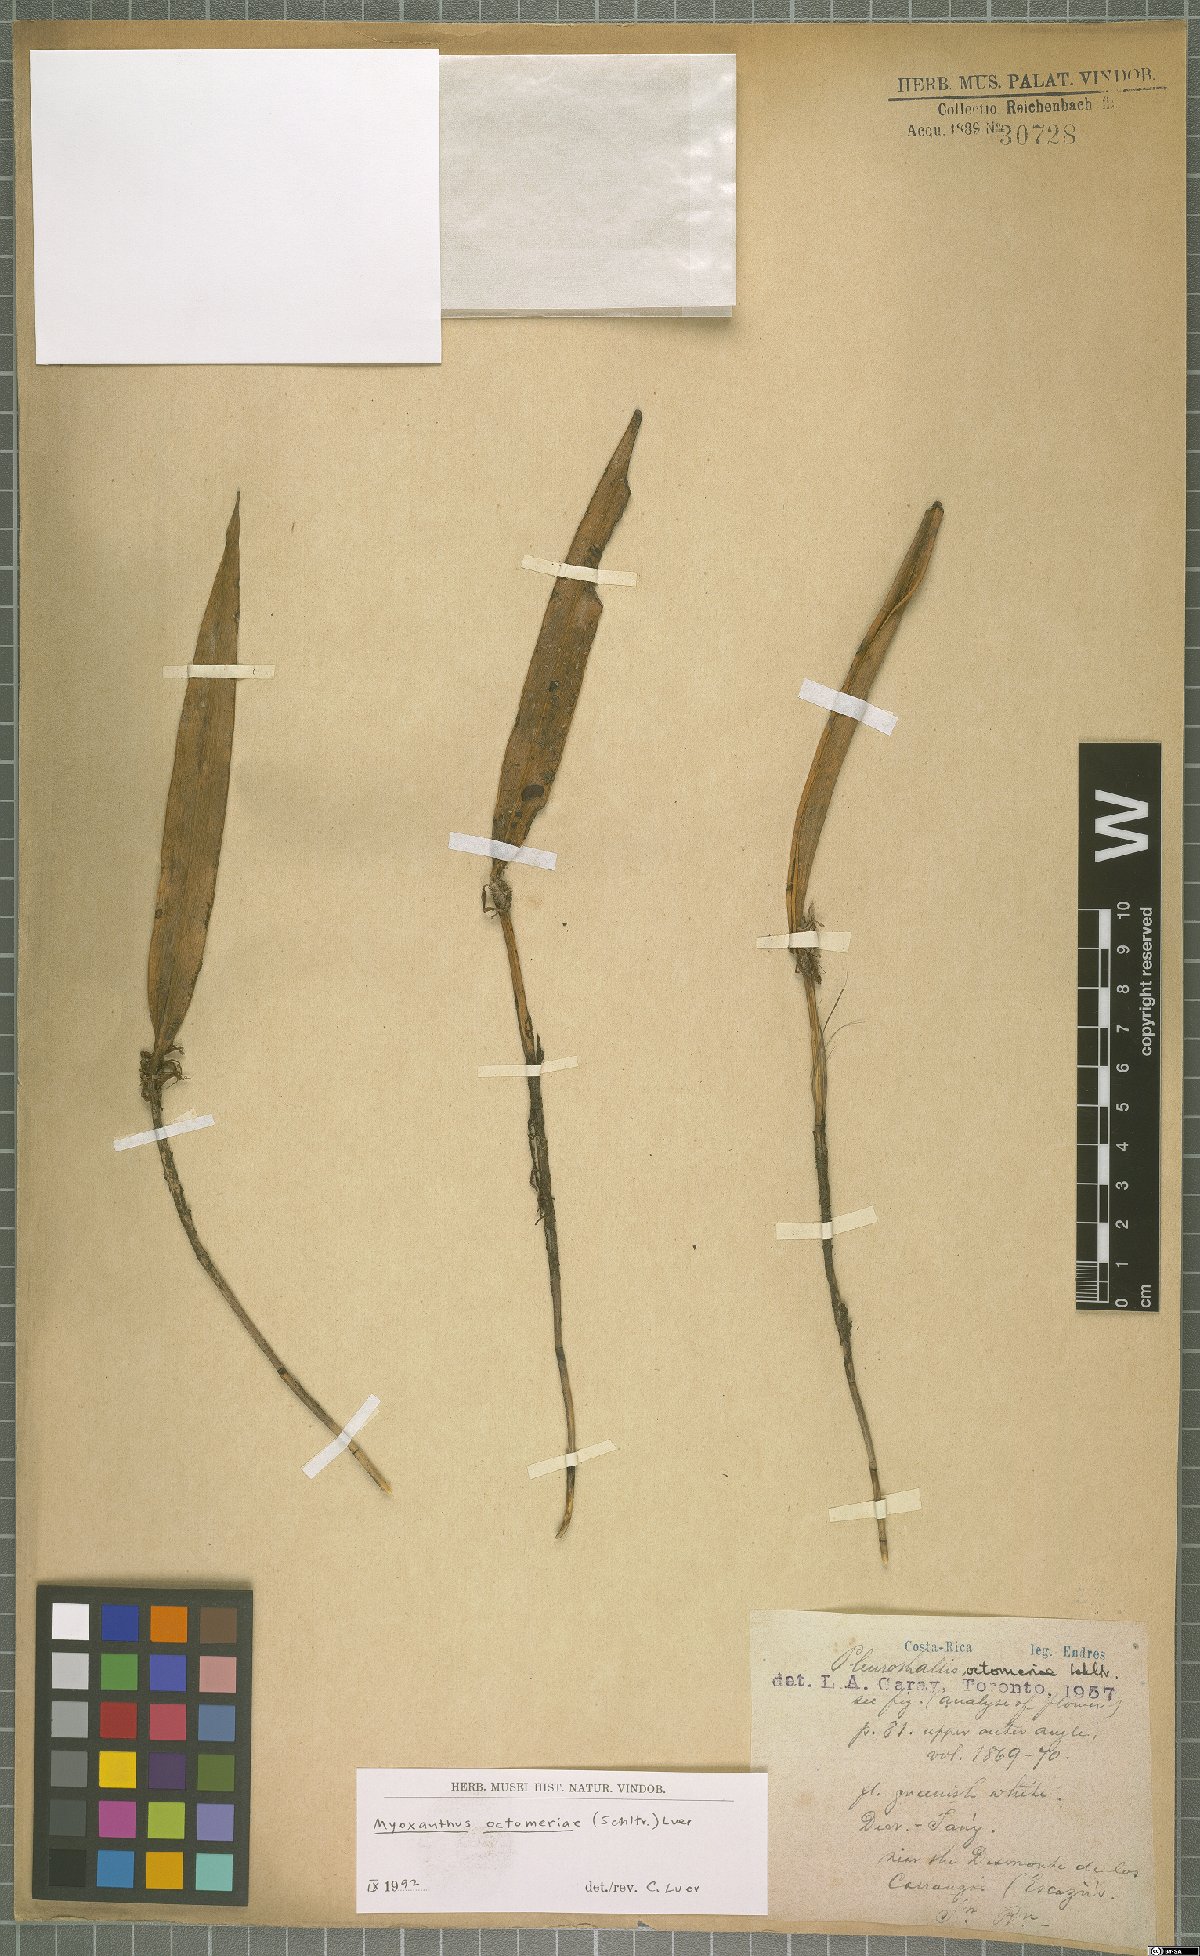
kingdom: Plantae
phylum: Tracheophyta
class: Liliopsida
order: Asparagales
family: Orchidaceae
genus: Myoxanthus
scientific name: Myoxanthus congestus
